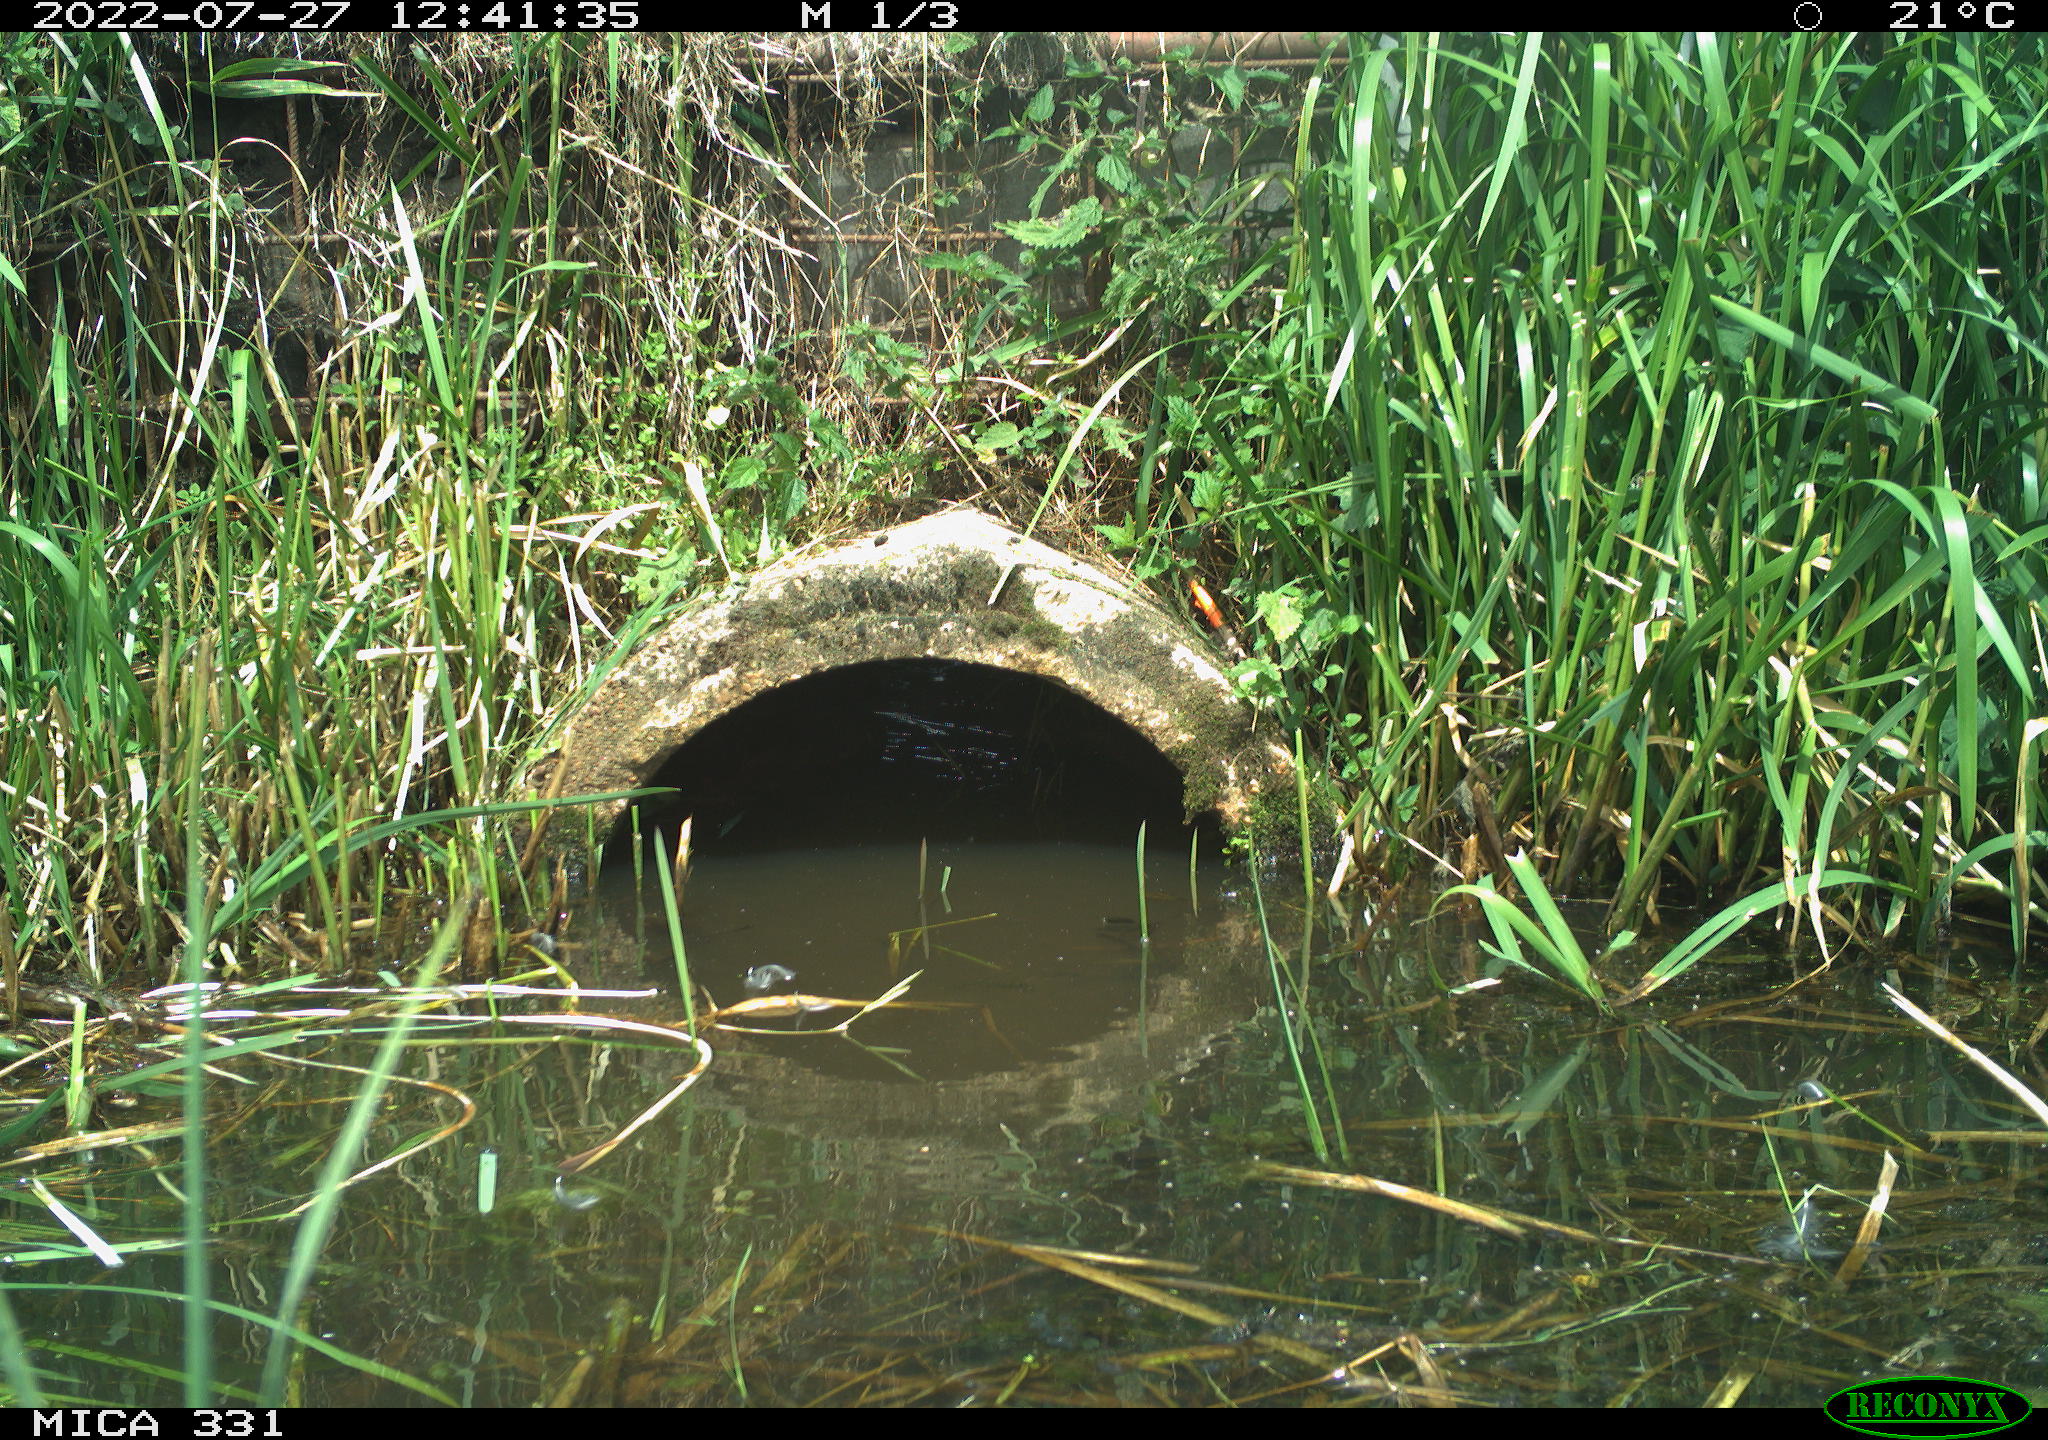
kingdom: Animalia
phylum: Chordata
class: Aves
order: Gruiformes
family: Rallidae
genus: Fulica
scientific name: Fulica atra
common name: Eurasian coot
